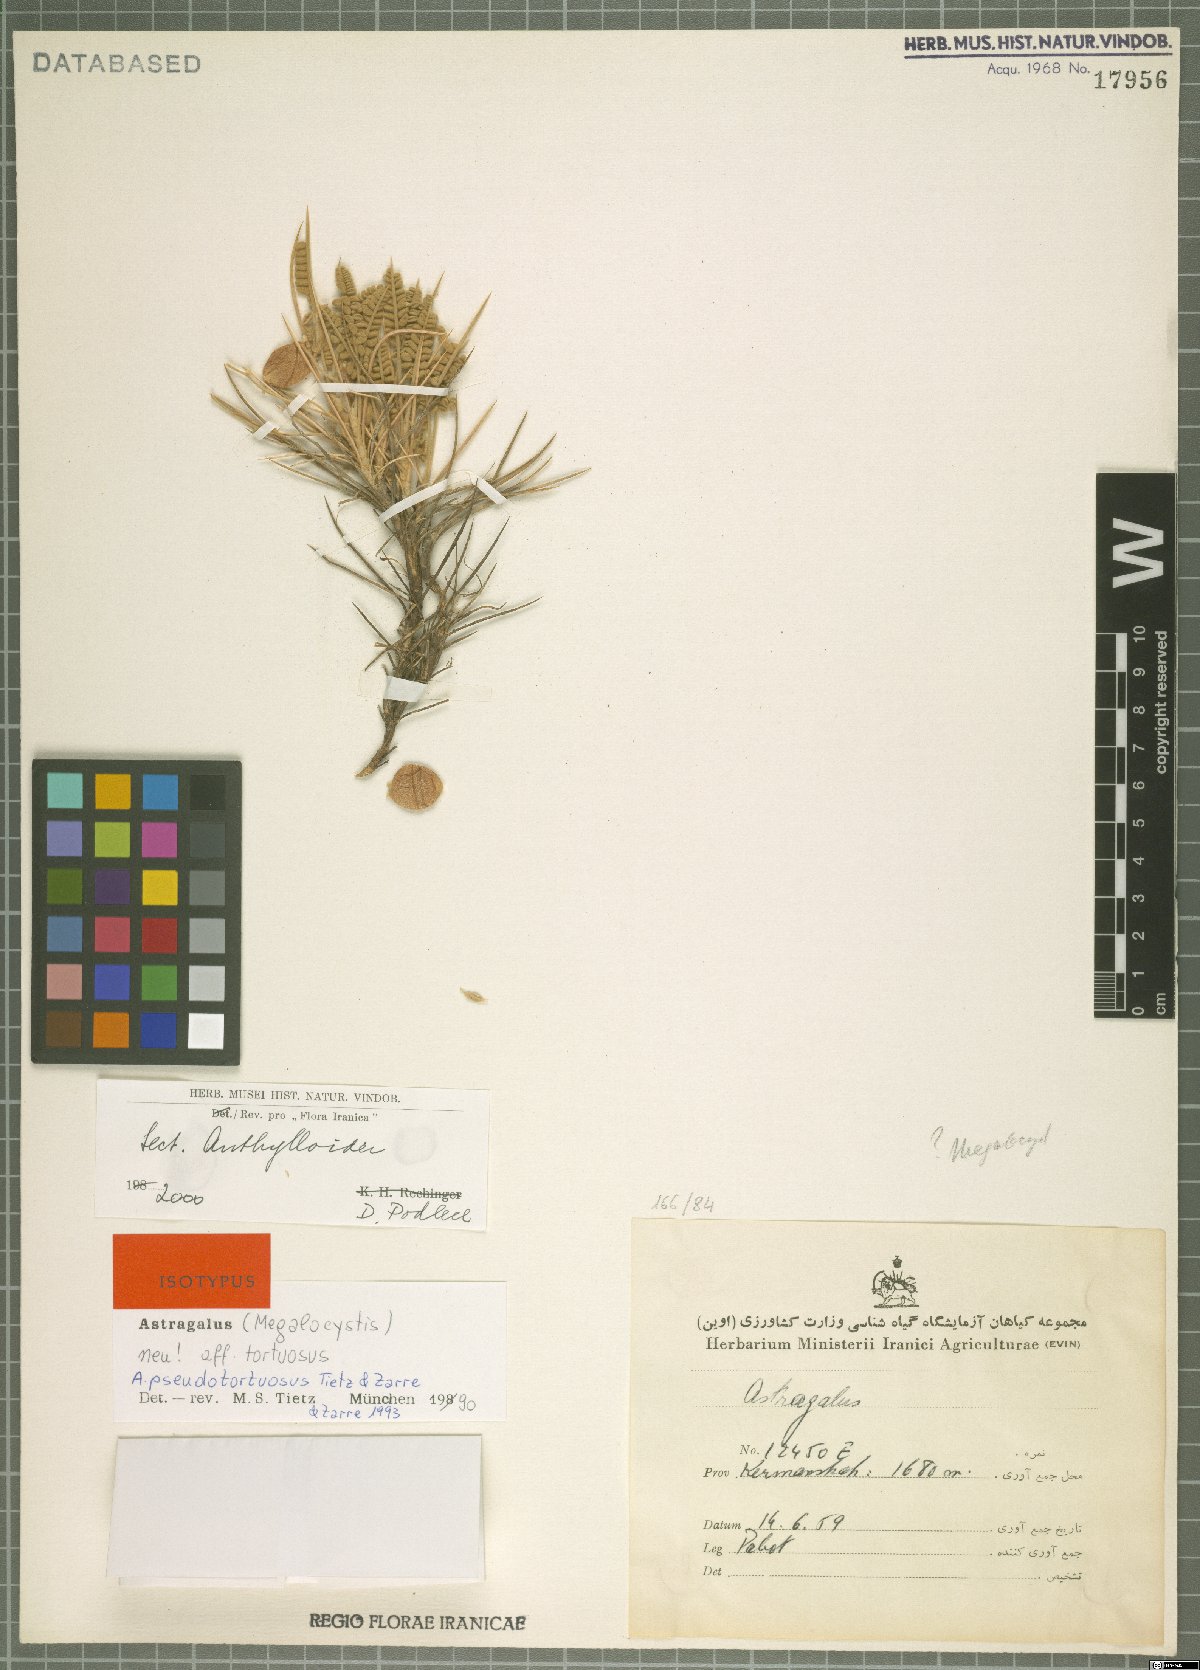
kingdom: Plantae
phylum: Tracheophyta
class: Magnoliopsida
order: Fabales
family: Fabaceae
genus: Astragalus
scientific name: Astragalus pseudotortuosus
